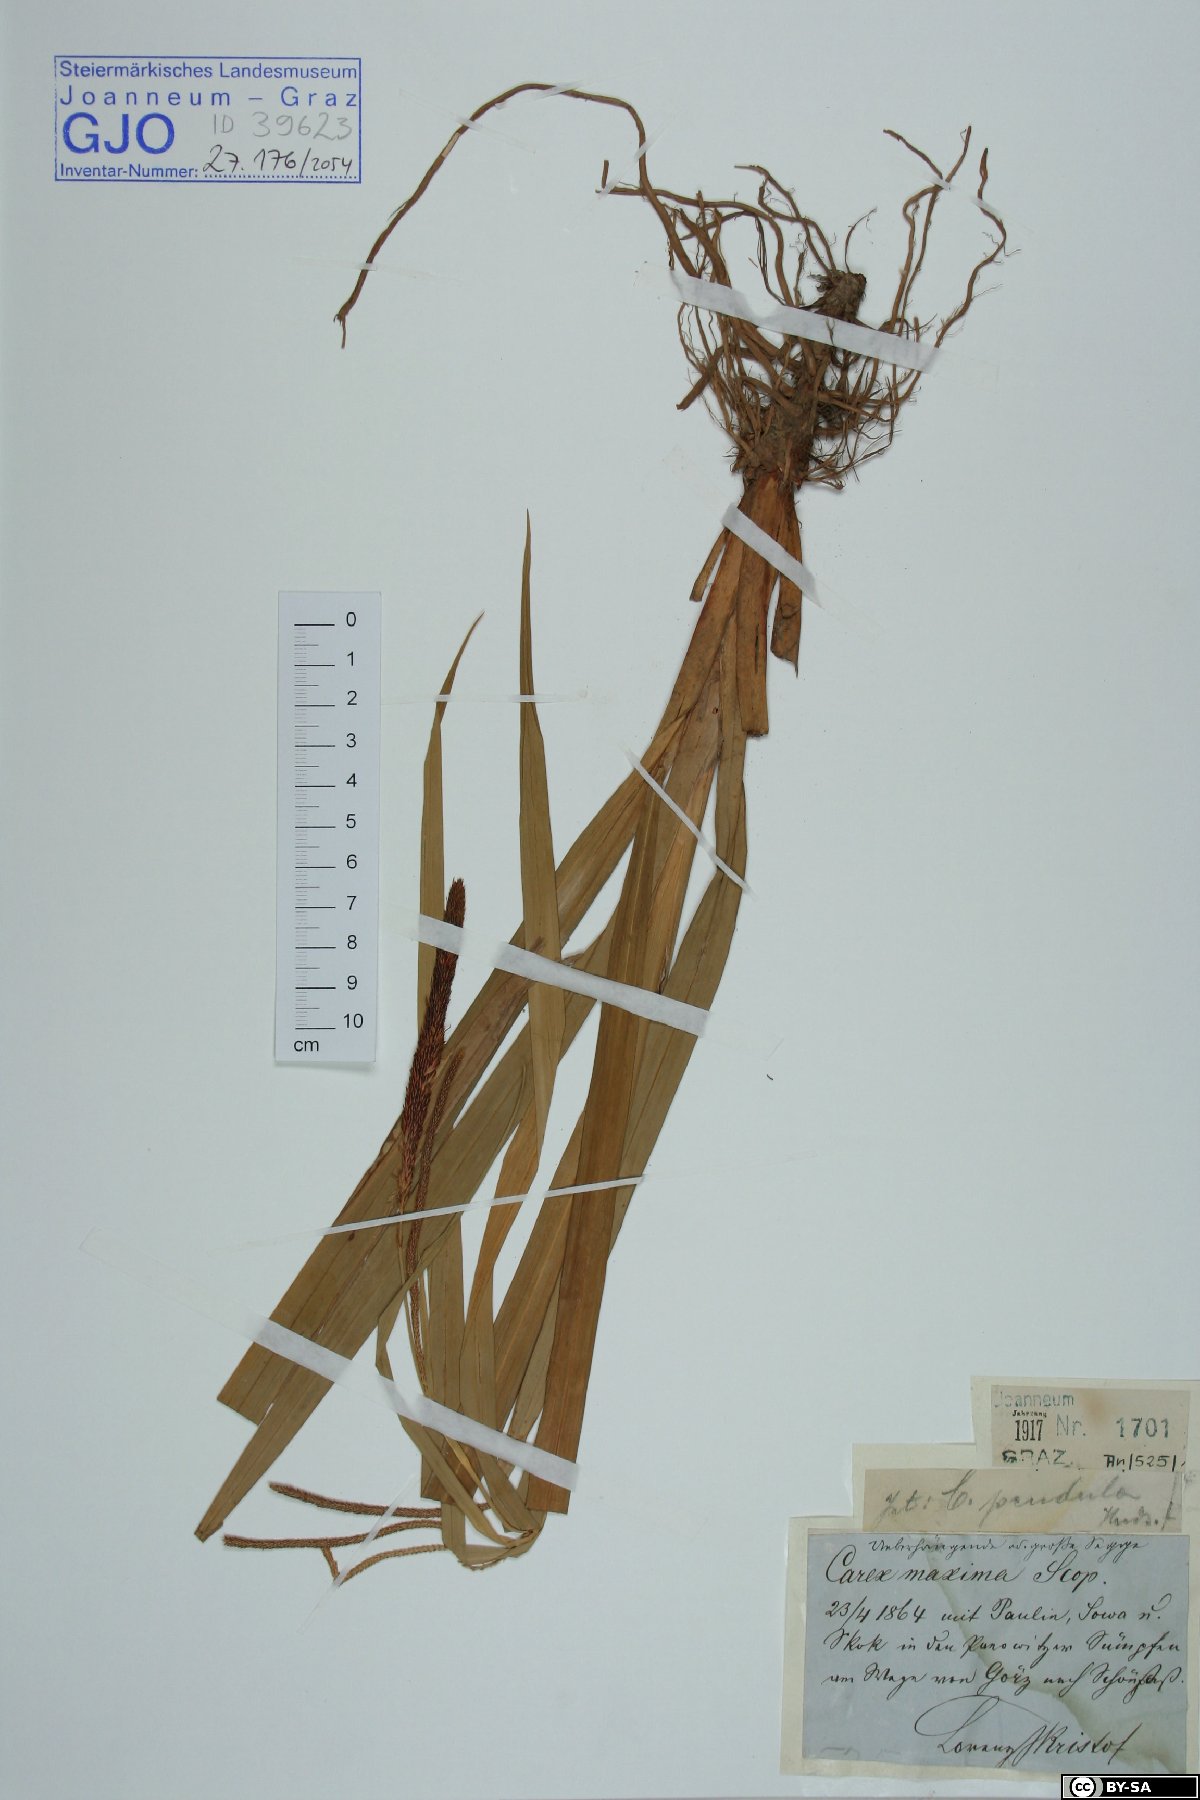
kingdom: Plantae
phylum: Tracheophyta
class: Liliopsida
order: Poales
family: Cyperaceae
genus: Carex
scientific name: Carex pendula
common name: Pendulous sedge
